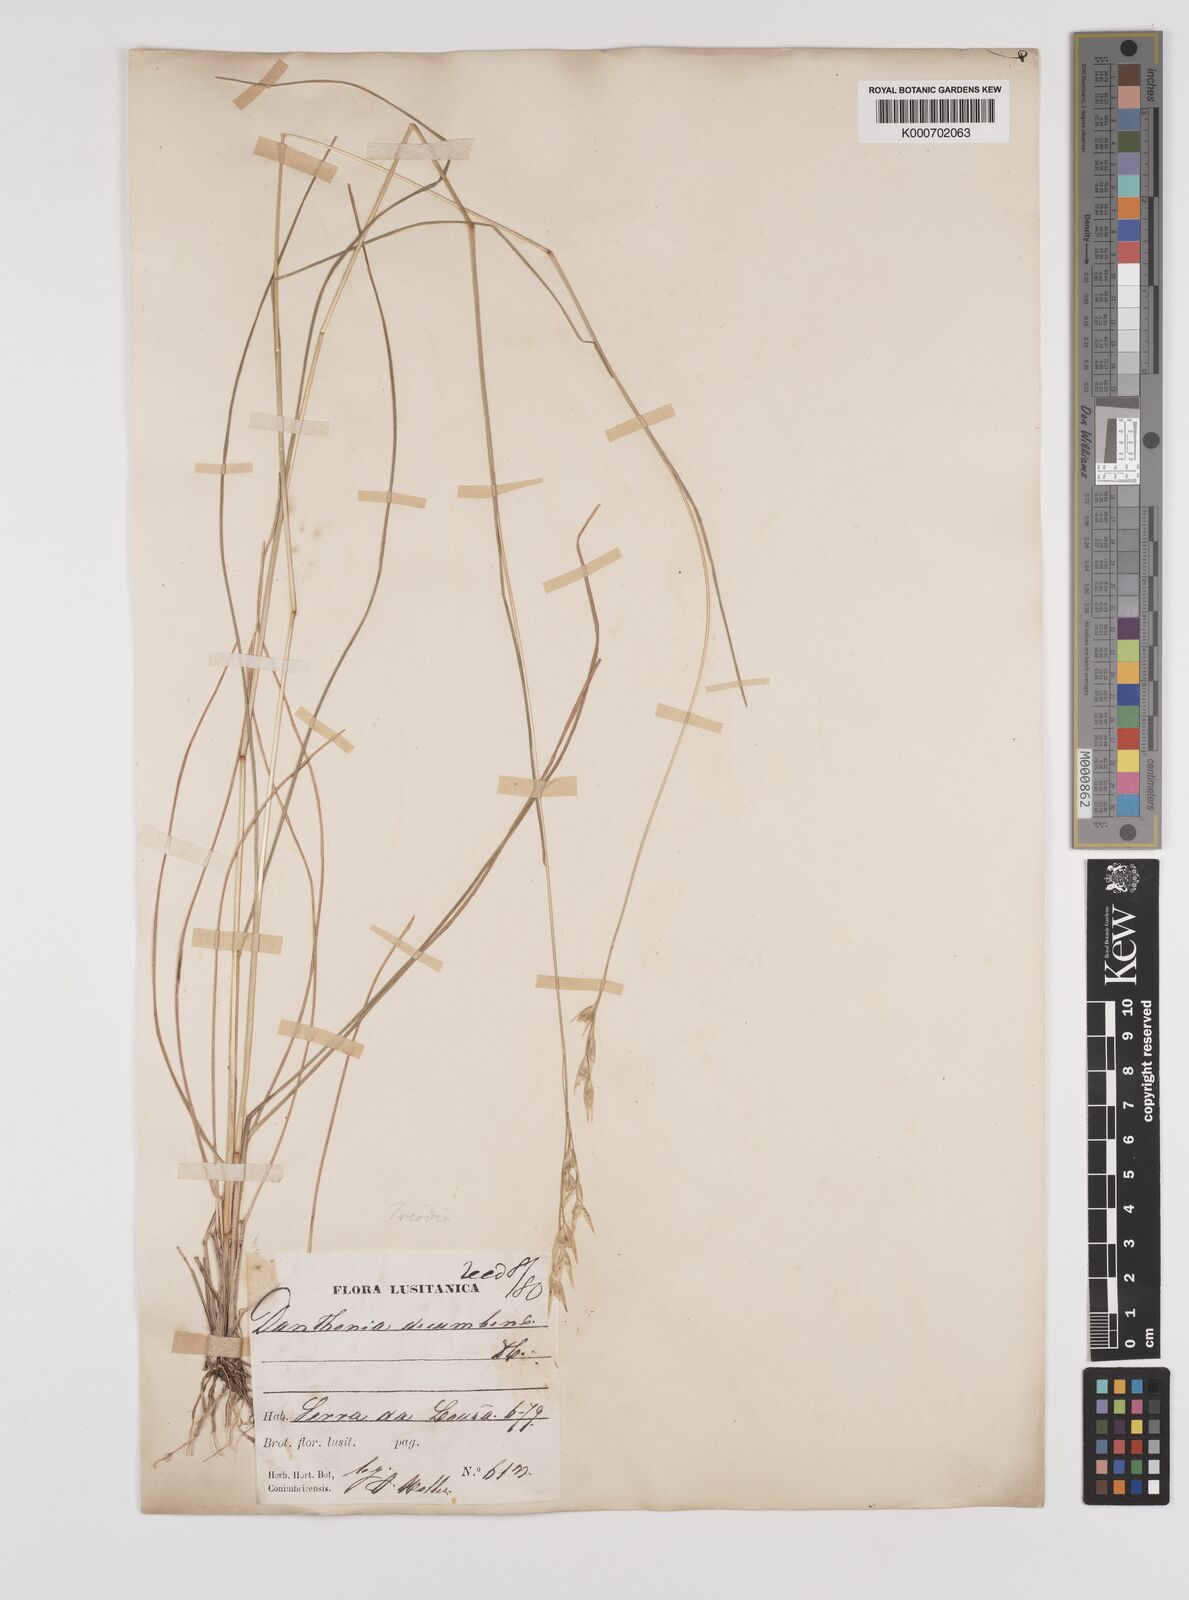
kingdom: Plantae
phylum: Tracheophyta
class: Liliopsida
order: Poales
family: Poaceae
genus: Danthonia
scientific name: Danthonia decumbens
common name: Common heathgrass
